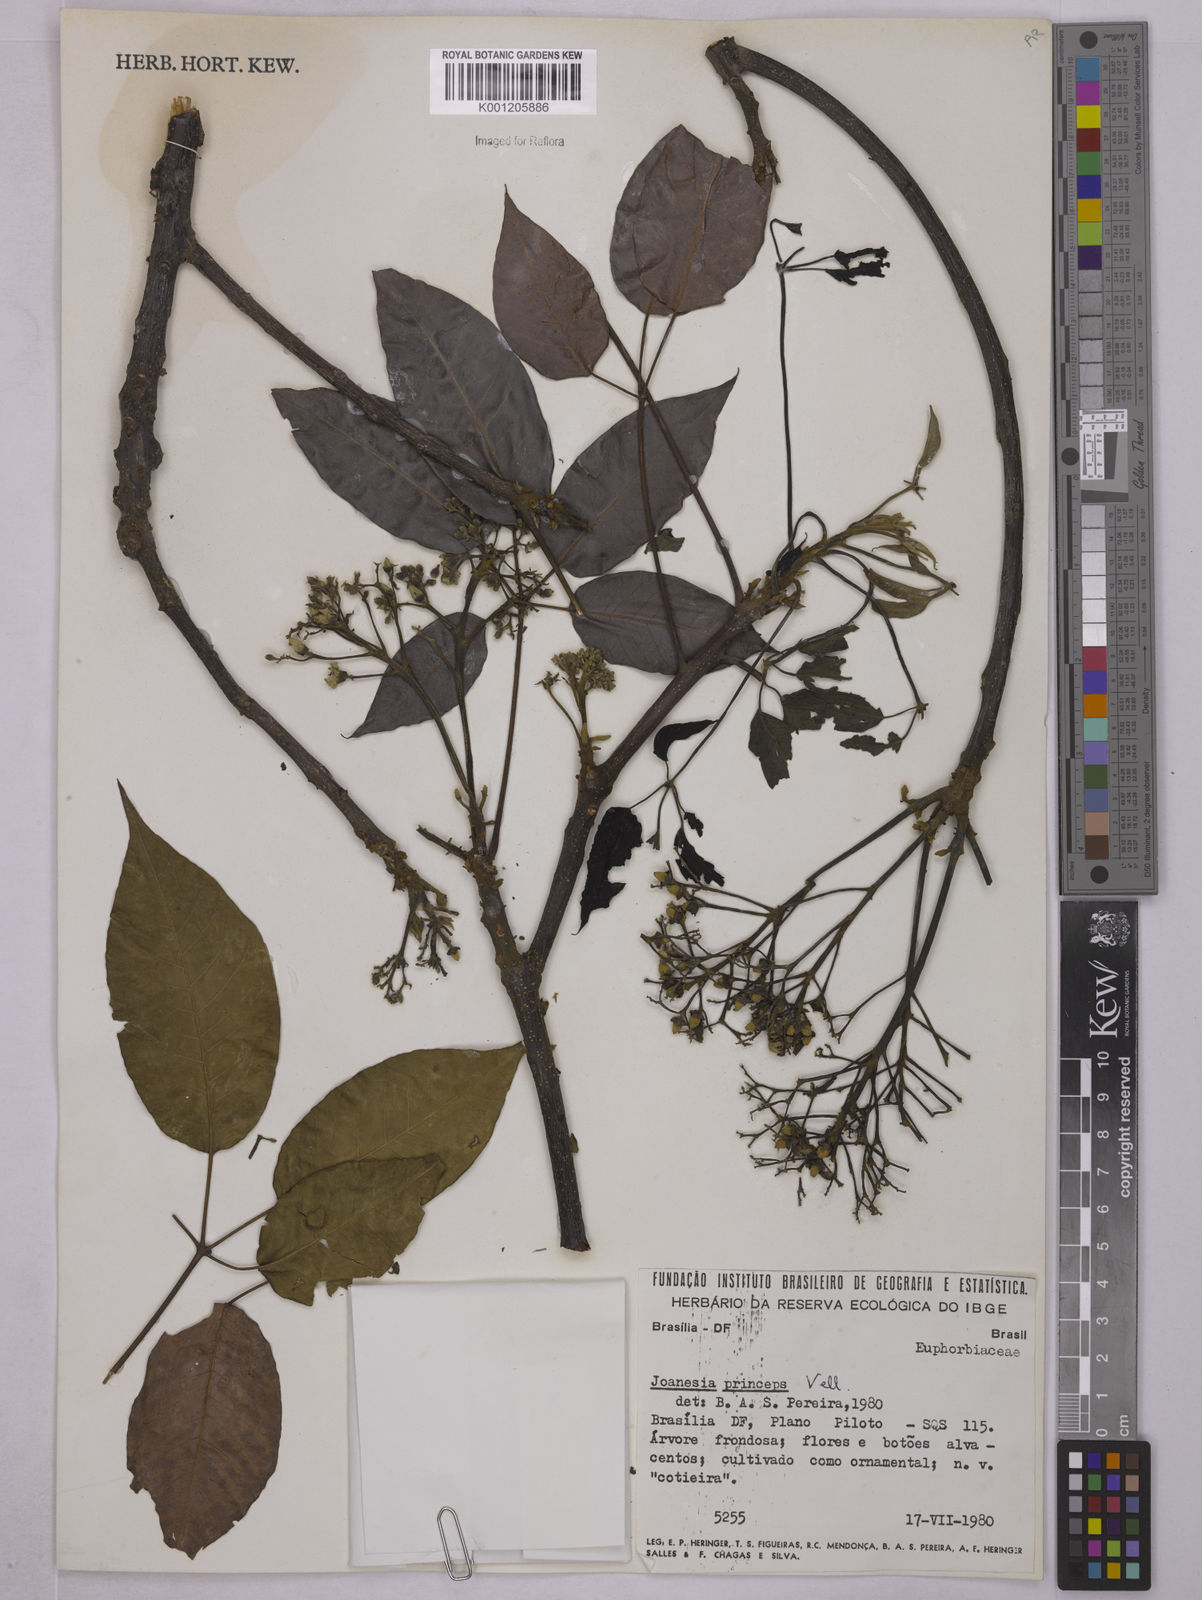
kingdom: Plantae
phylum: Tracheophyta
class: Magnoliopsida
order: Malpighiales
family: Euphorbiaceae
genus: Joannesia
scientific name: Joannesia princeps
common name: Arara nut-tree
